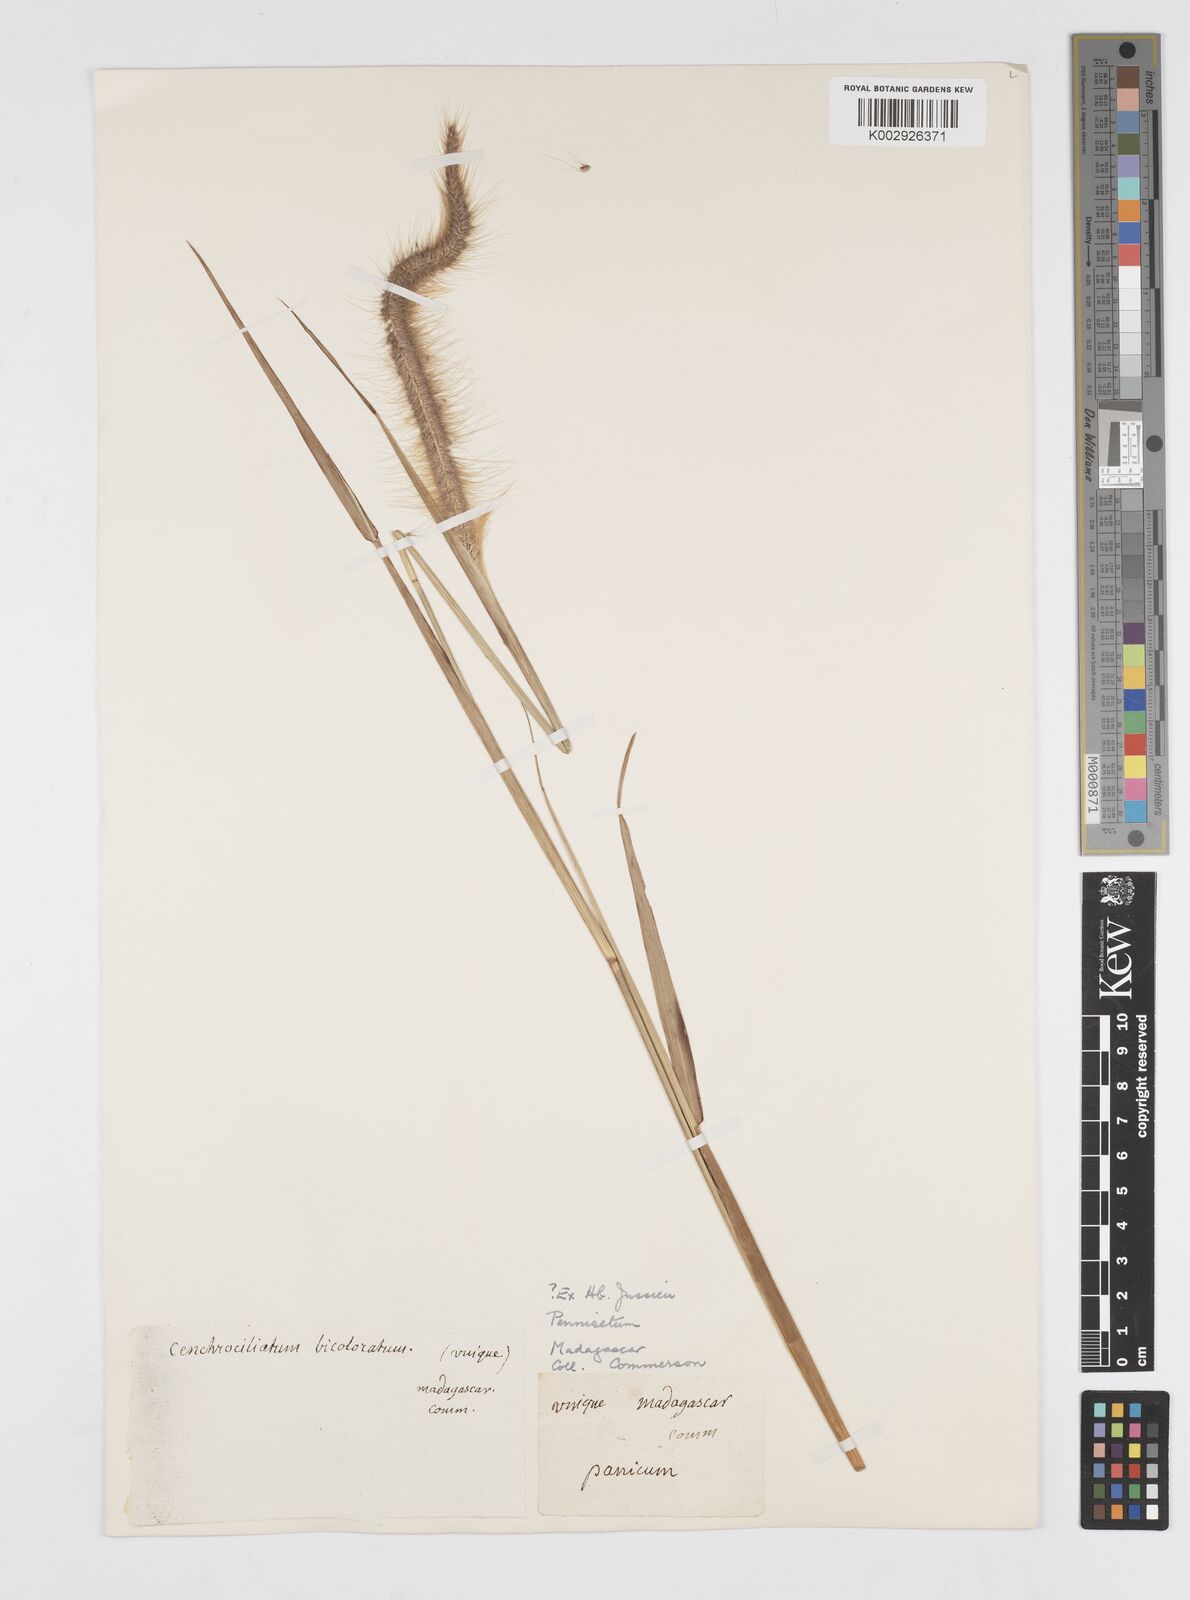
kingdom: Plantae
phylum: Tracheophyta
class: Liliopsida
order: Poales
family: Poaceae
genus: Setaria
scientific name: Setaria parviflora
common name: Knotroot bristle-grass
